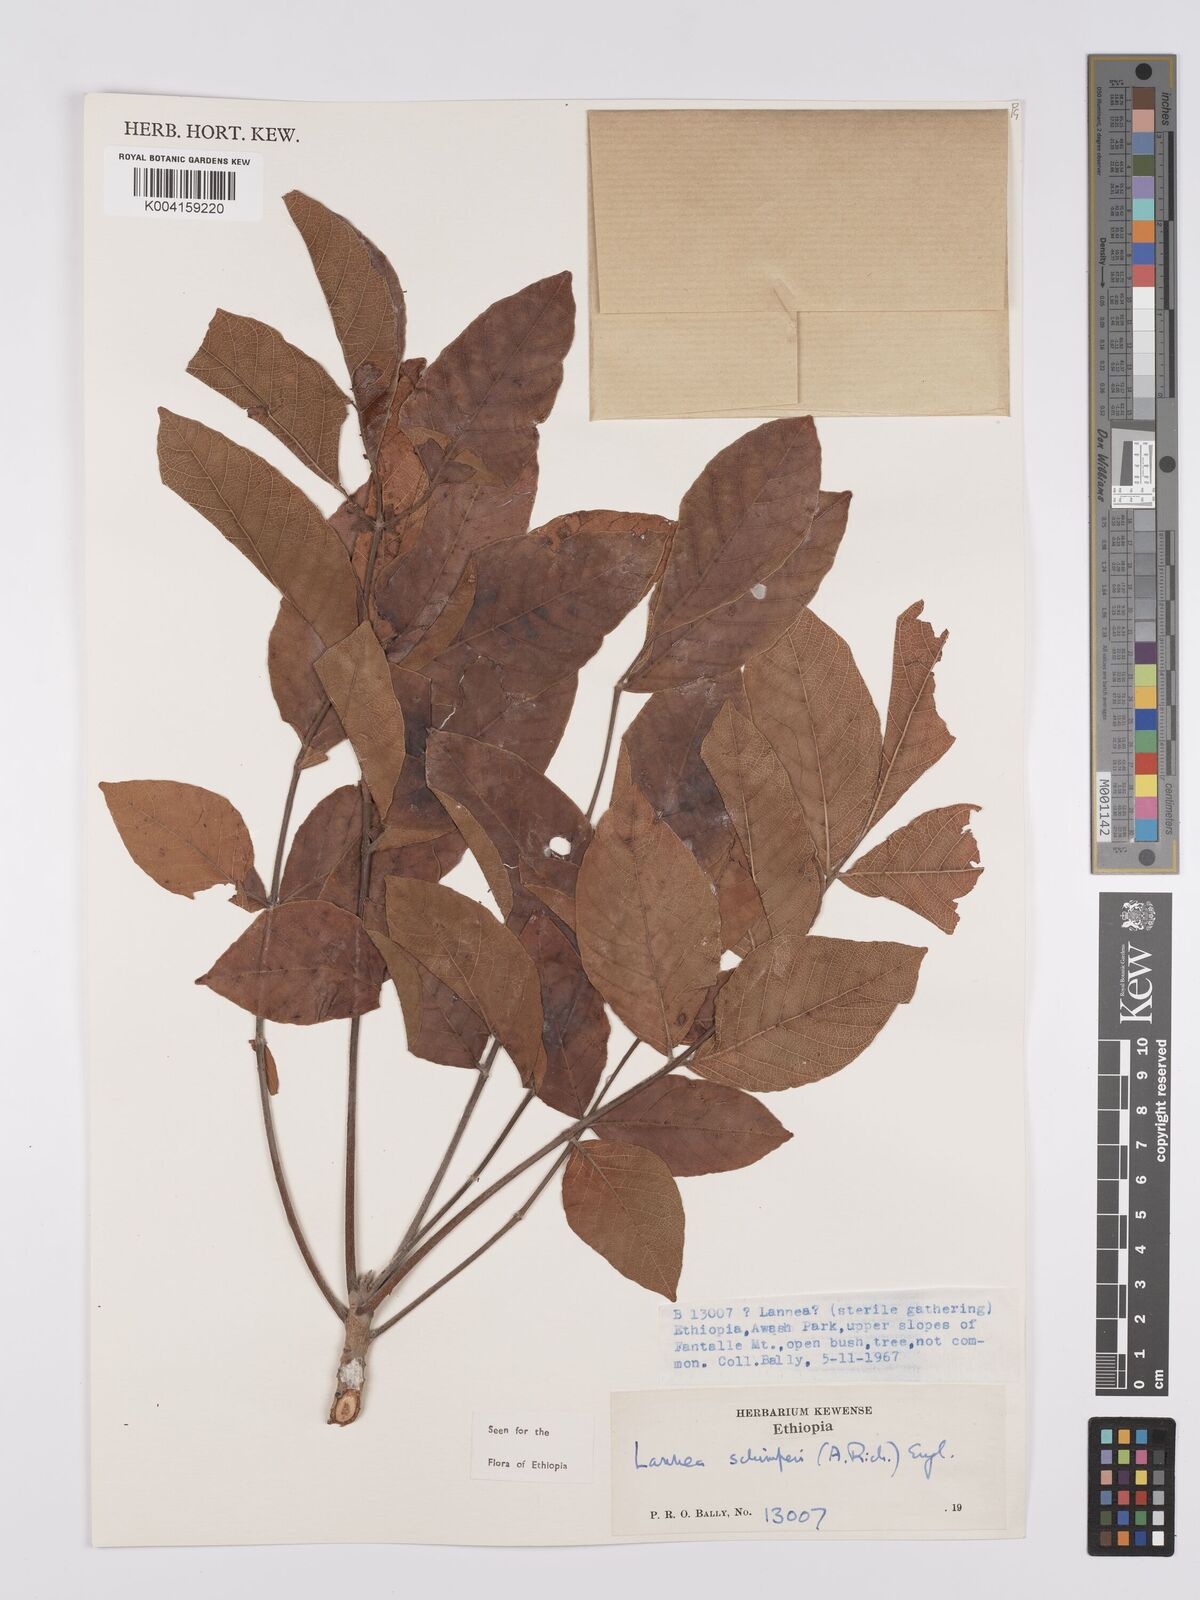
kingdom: Plantae
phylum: Tracheophyta
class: Magnoliopsida
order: Sapindales
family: Anacardiaceae
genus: Lannea
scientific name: Lannea schimperi
